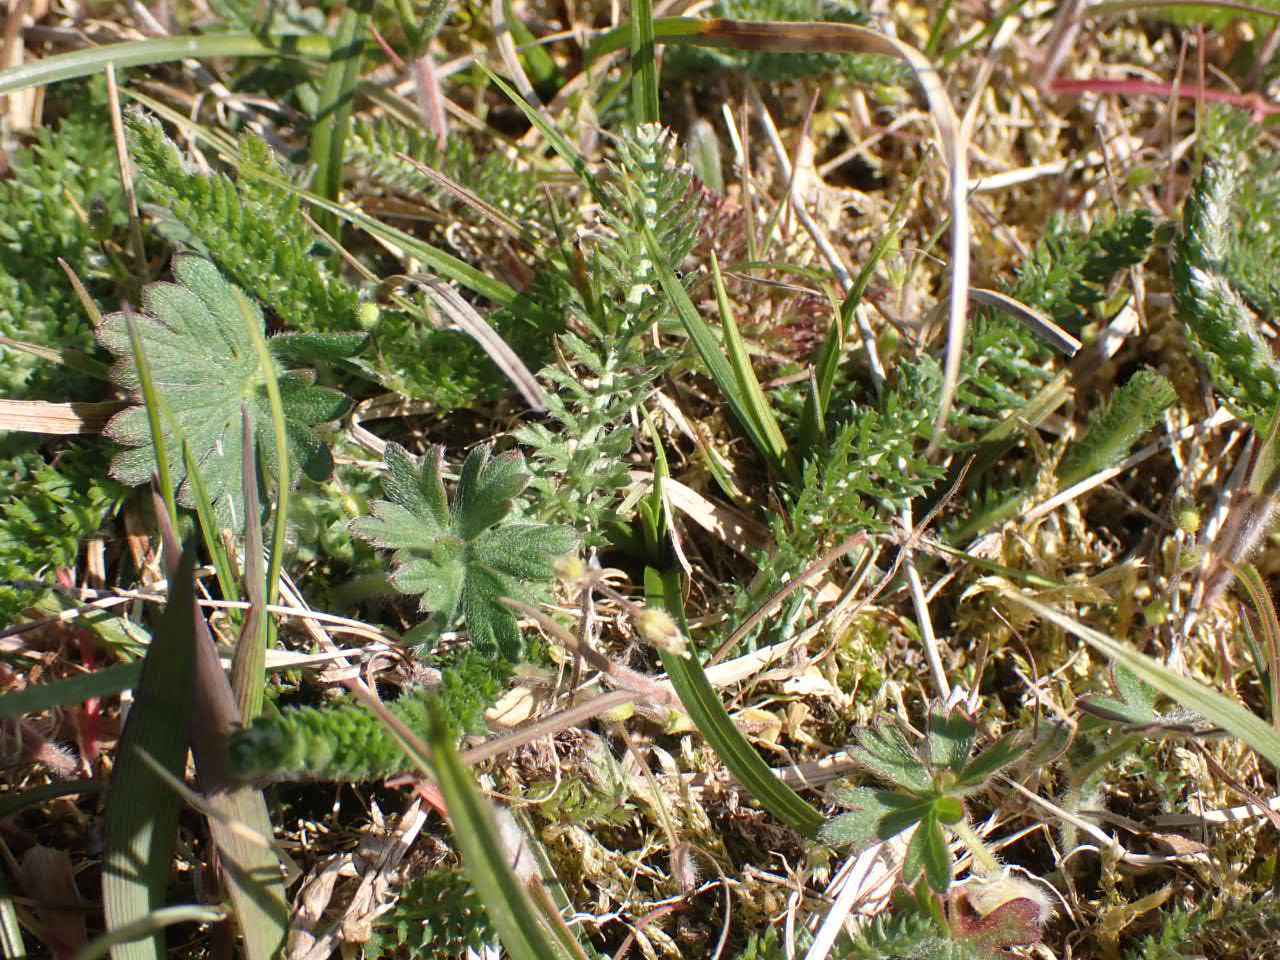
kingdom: Plantae
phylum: Tracheophyta
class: Magnoliopsida
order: Asterales
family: Asteraceae
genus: Achillea
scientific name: Achillea millefolium
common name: Almindelig røllike
